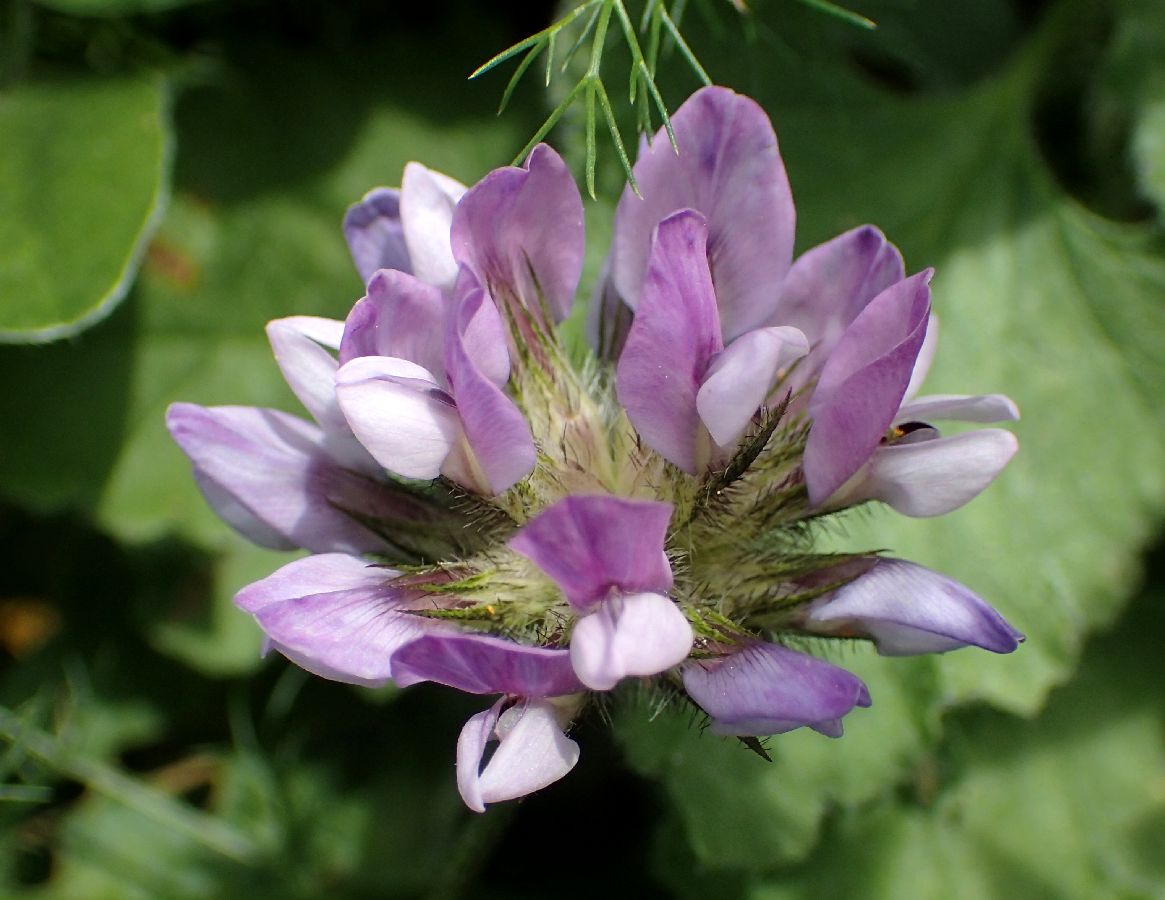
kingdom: Plantae
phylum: Tracheophyta
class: Magnoliopsida
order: Fabales
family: Fabaceae
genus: Bituminaria
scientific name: Bituminaria bituminosa
